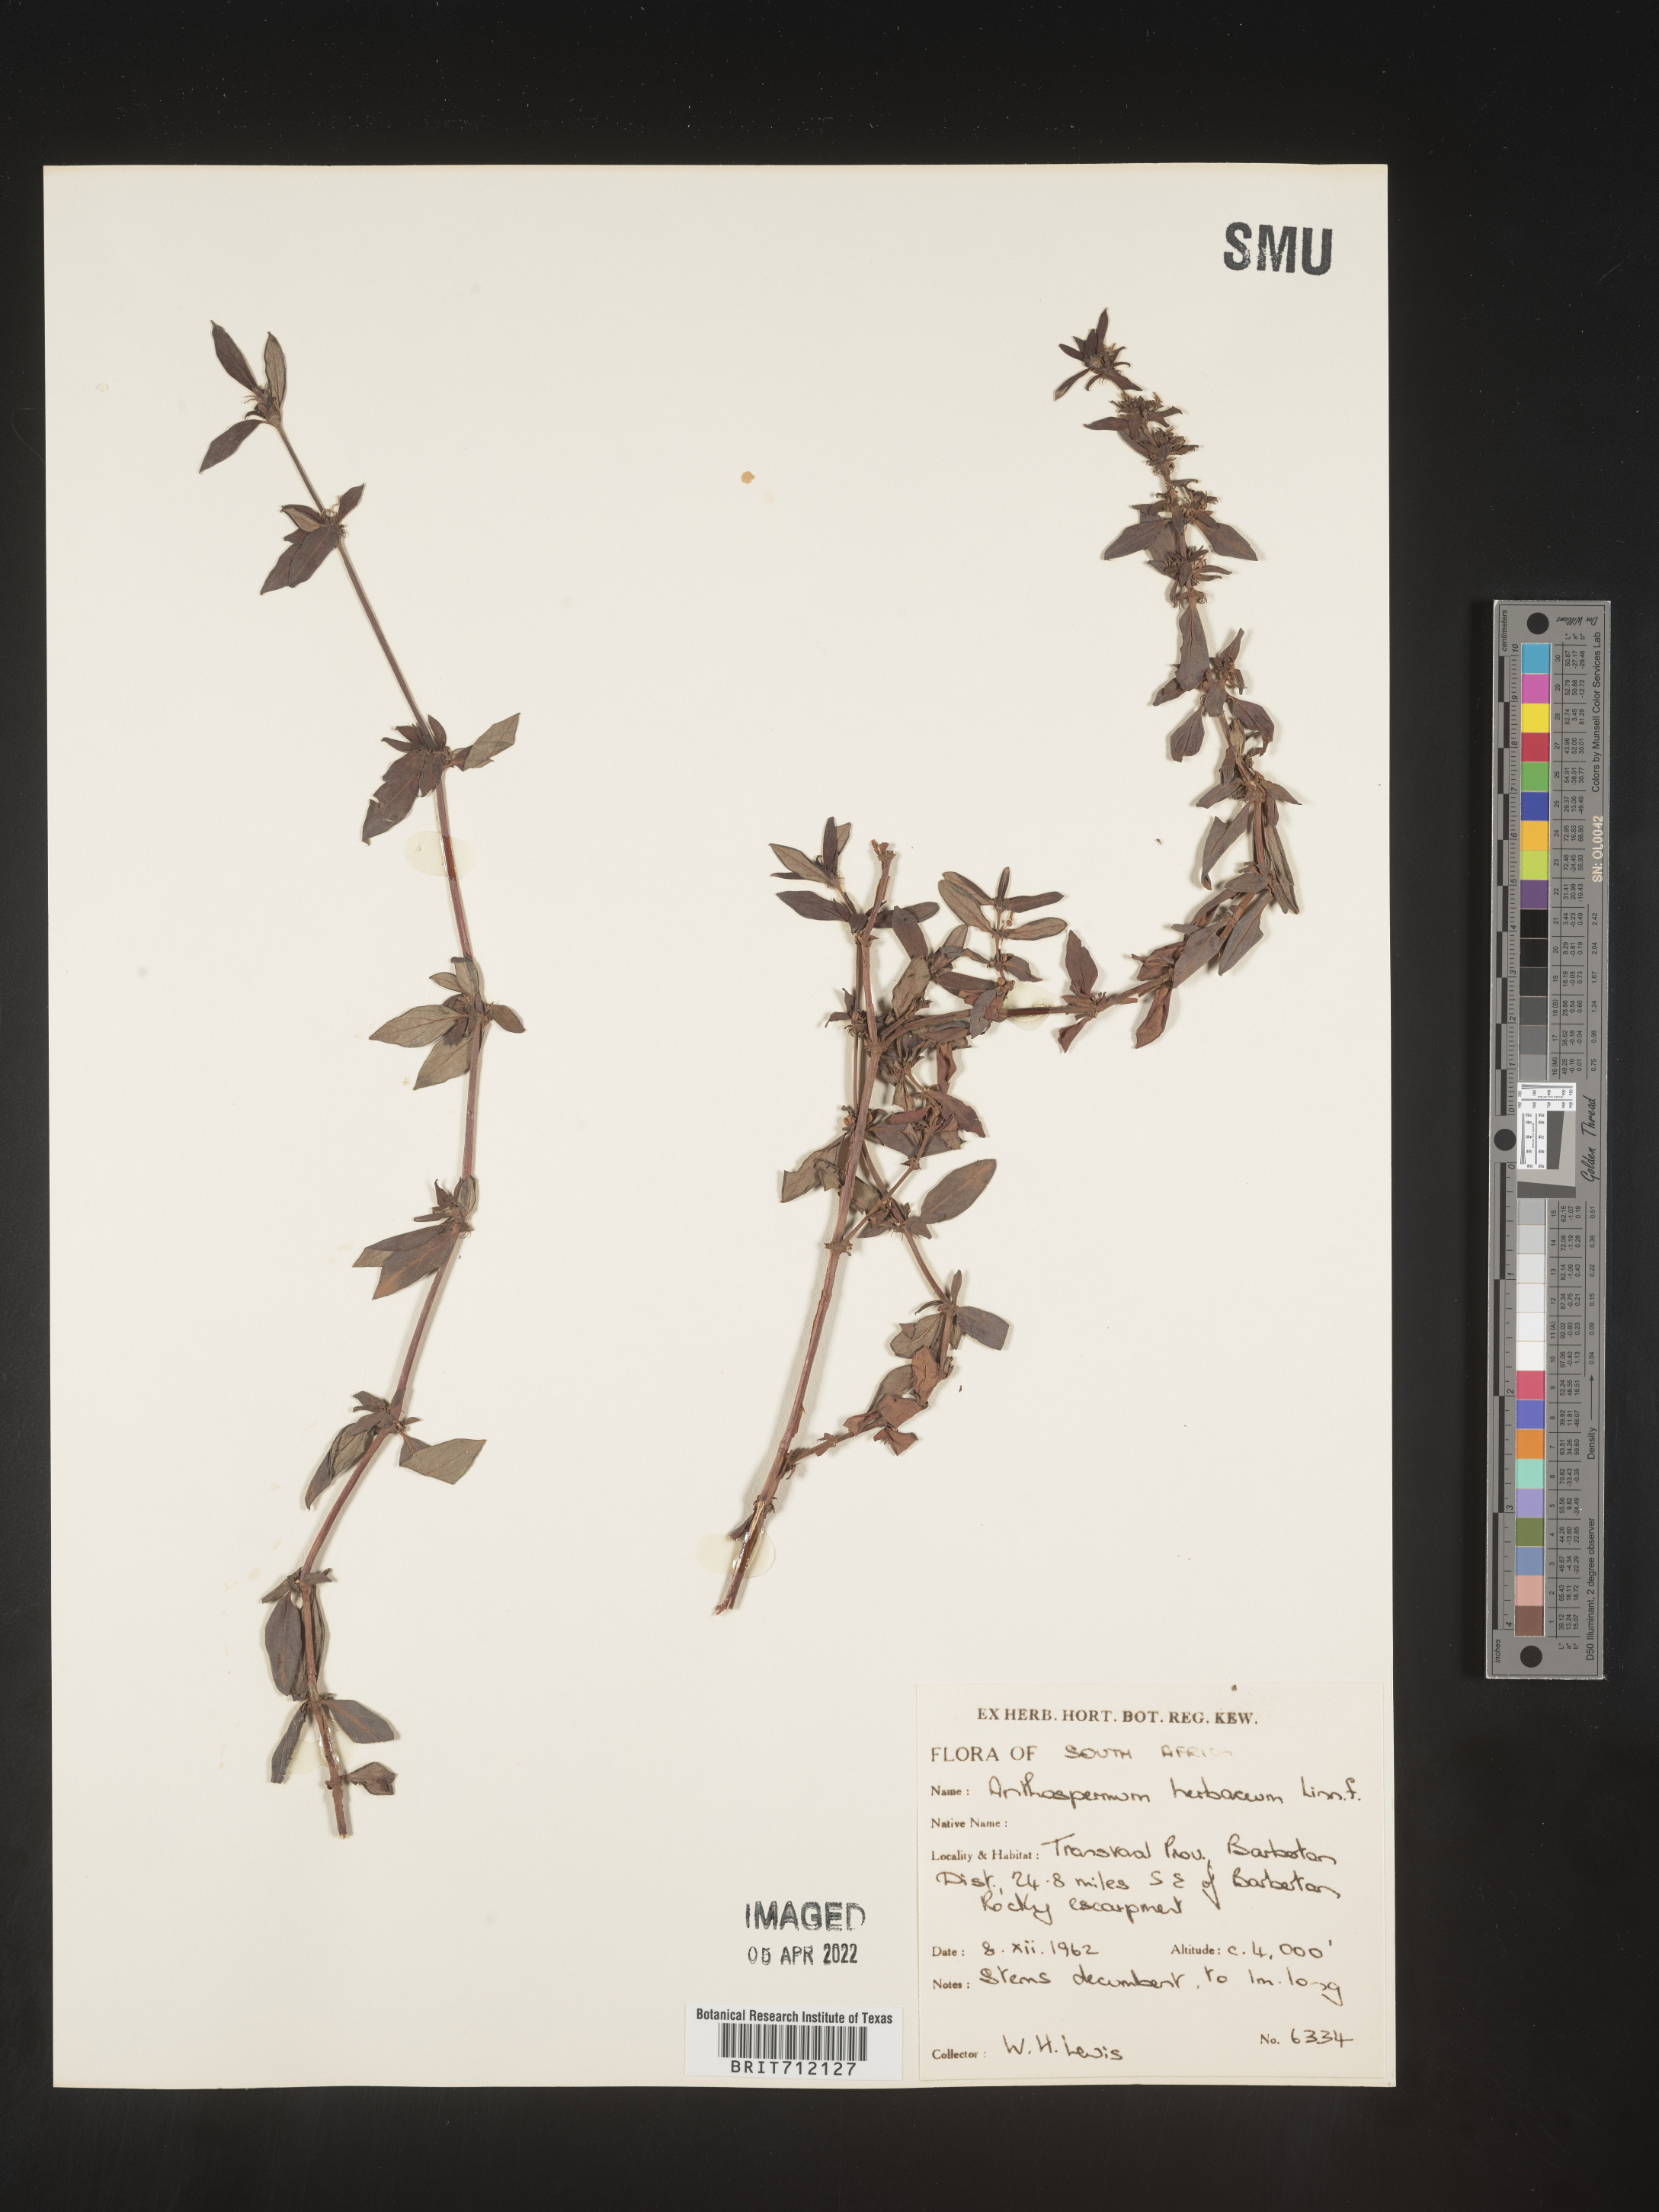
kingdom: Plantae
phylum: Tracheophyta
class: Magnoliopsida
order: Gentianales
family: Rubiaceae
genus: Anthospermum
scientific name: Anthospermum
